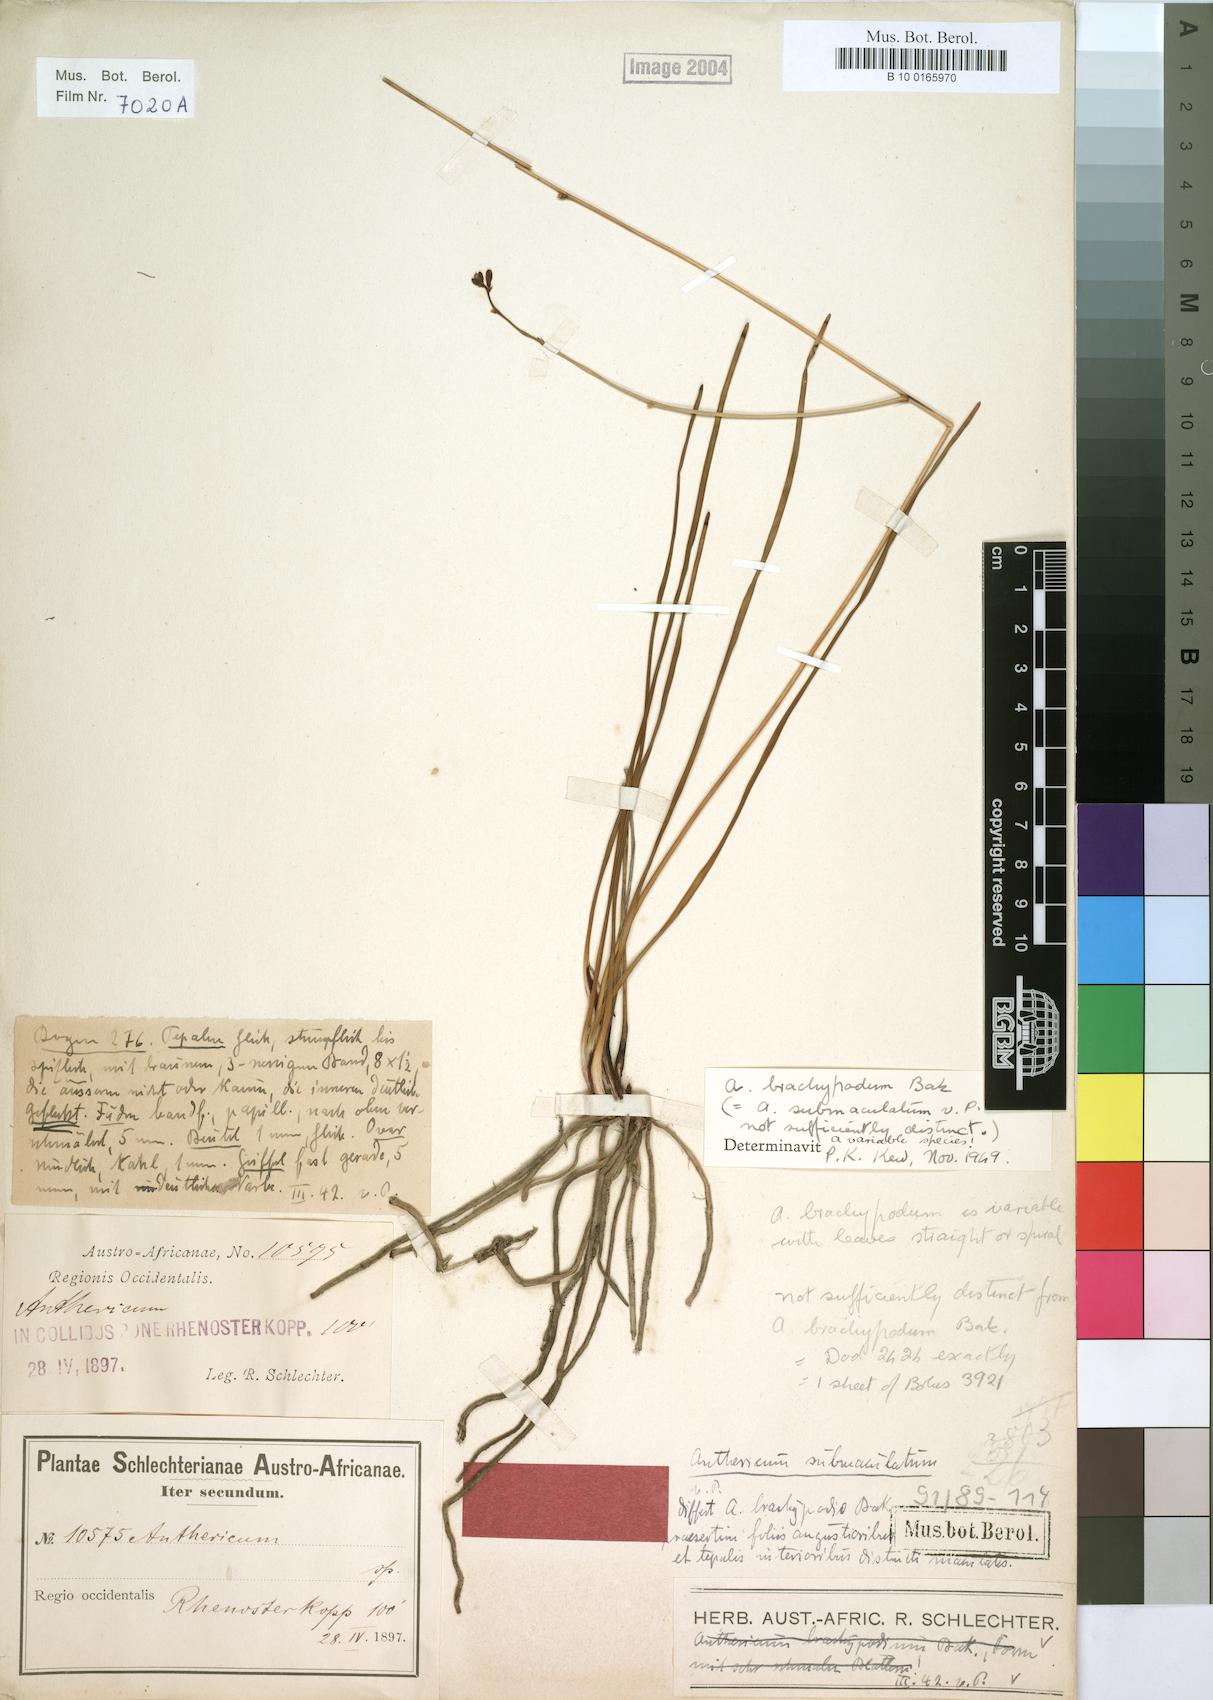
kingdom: Plantae
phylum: Tracheophyta
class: Liliopsida
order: Asparagales
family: Asphodelaceae
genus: Trachyandra
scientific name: Trachyandra brachypoda
